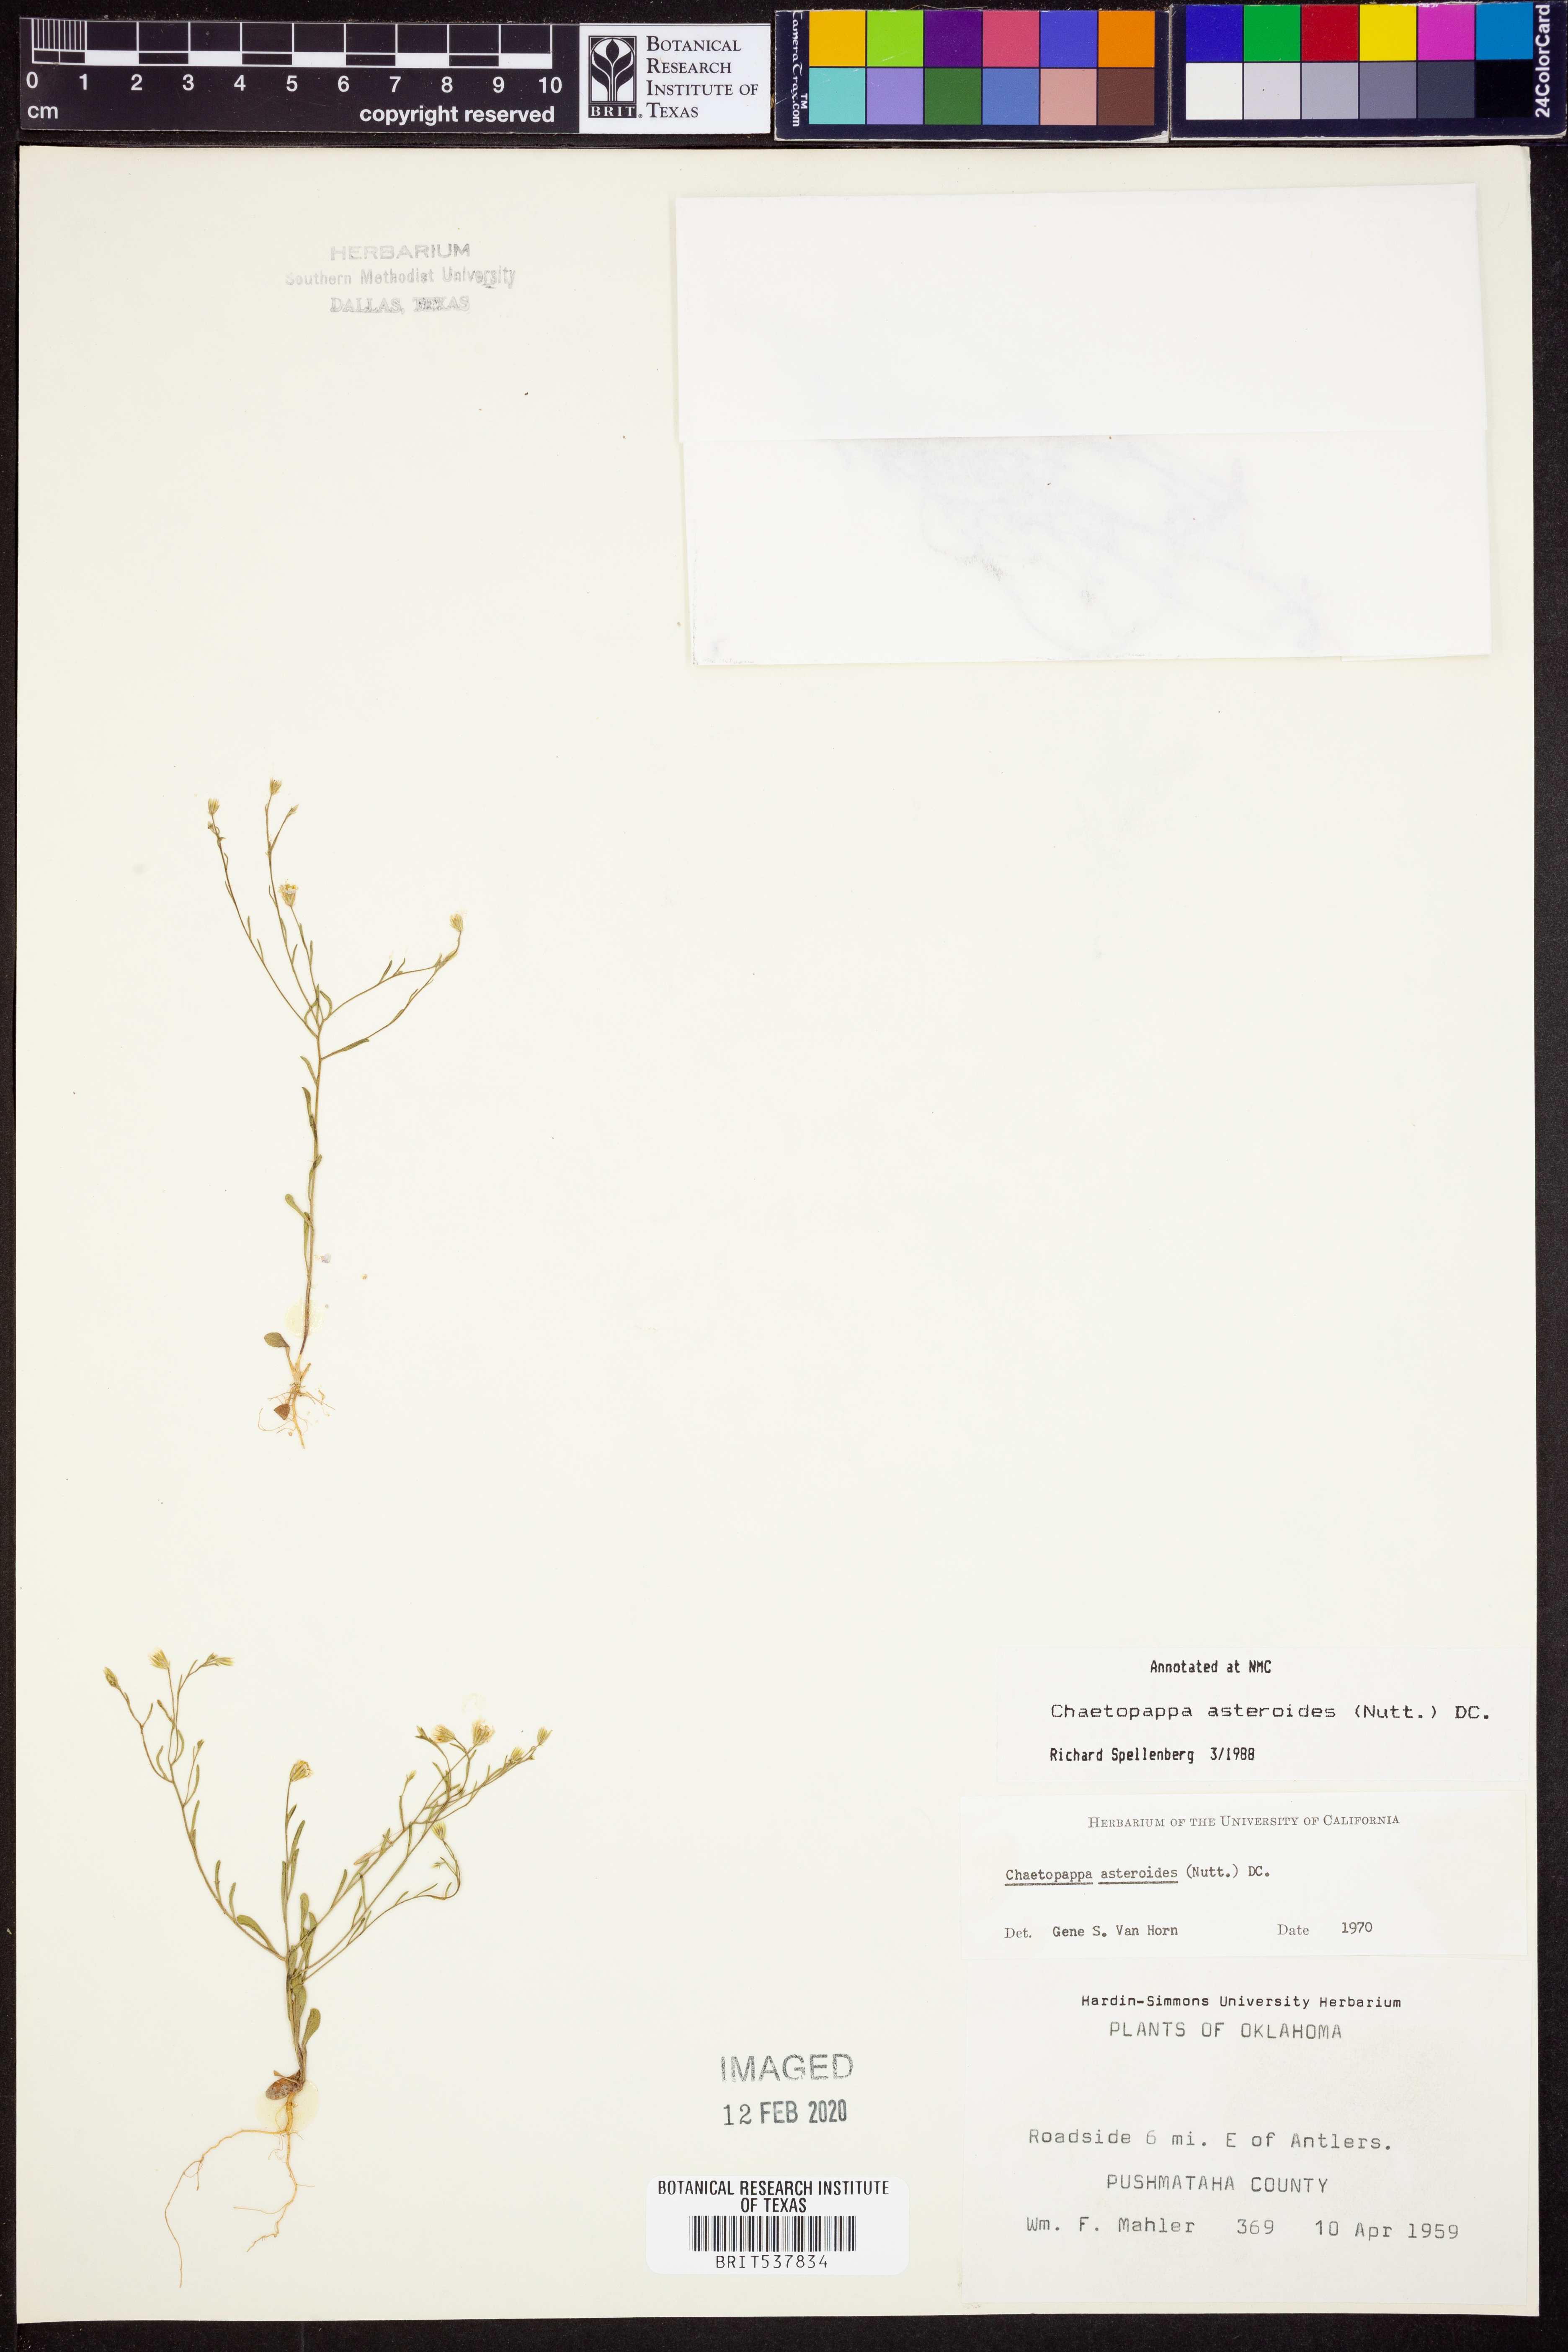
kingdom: Plantae
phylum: Tracheophyta
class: Magnoliopsida
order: Asterales
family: Asteraceae
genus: Chaetopappa
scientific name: Chaetopappa asteroides
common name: Tiny lazy daisy
